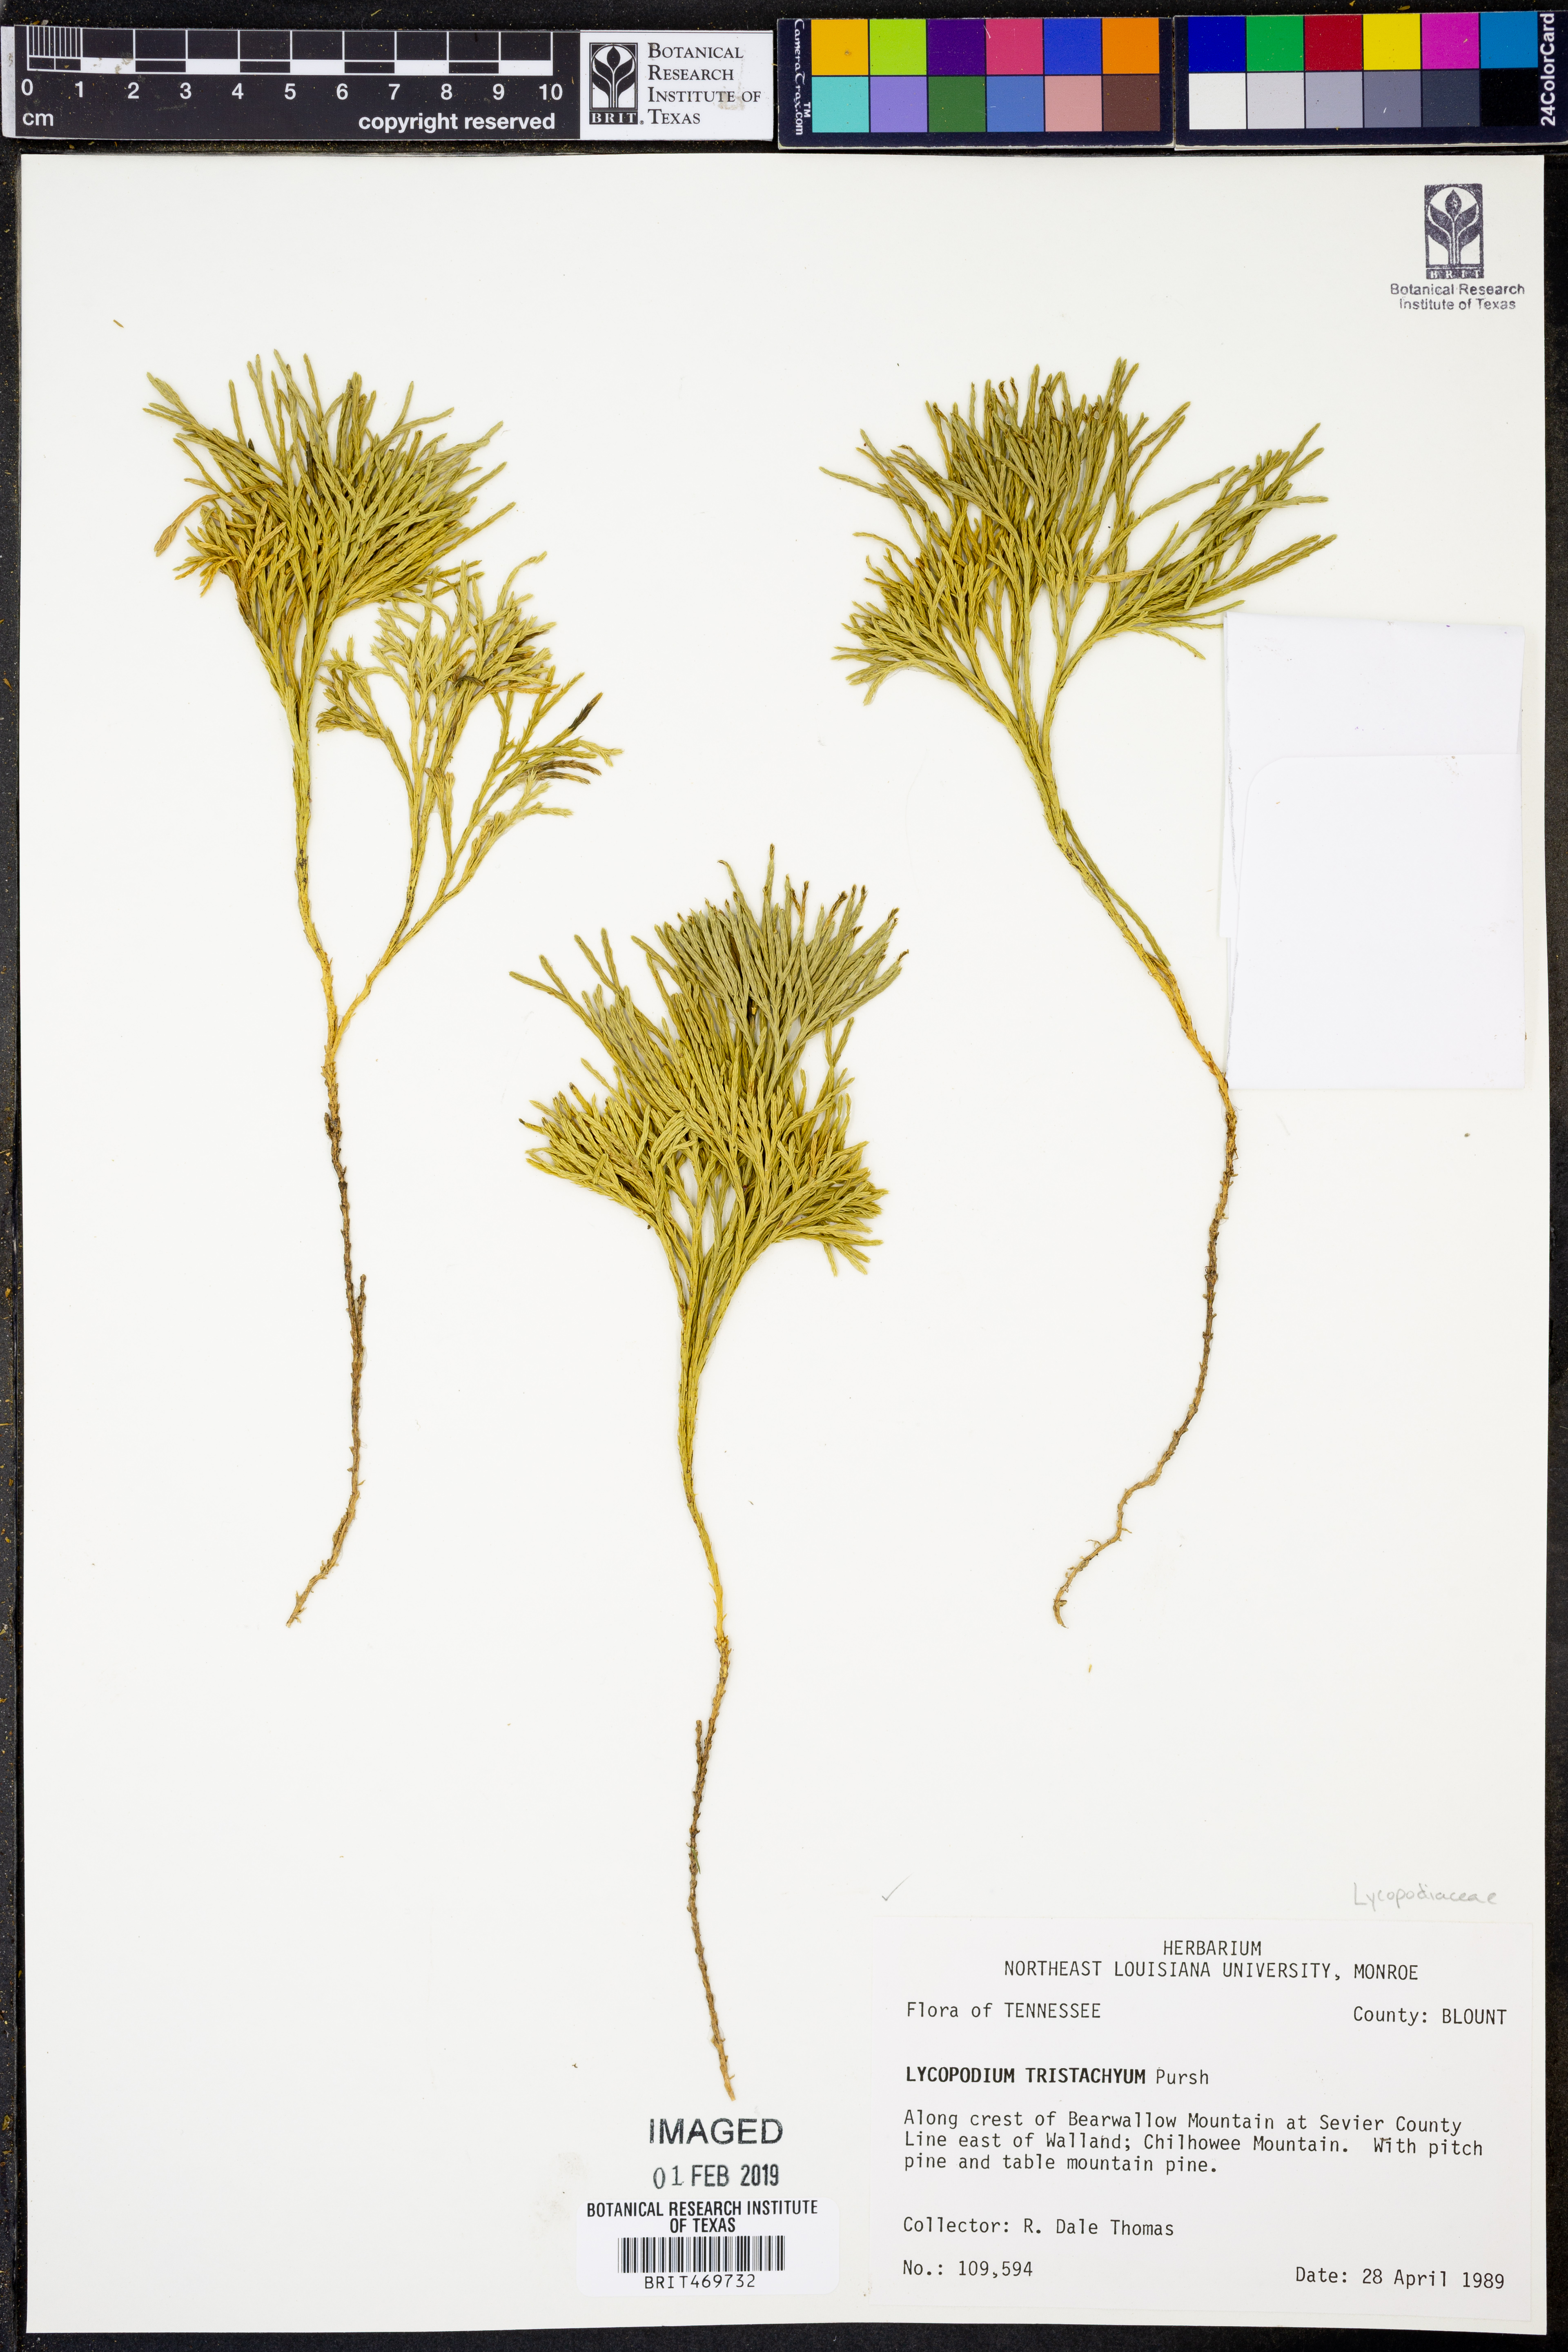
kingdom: Plantae
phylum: Tracheophyta
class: Lycopodiopsida
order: Lycopodiales
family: Lycopodiaceae
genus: Diphasiastrum
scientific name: Diphasiastrum tristachyum
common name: Blue ground-cedar
